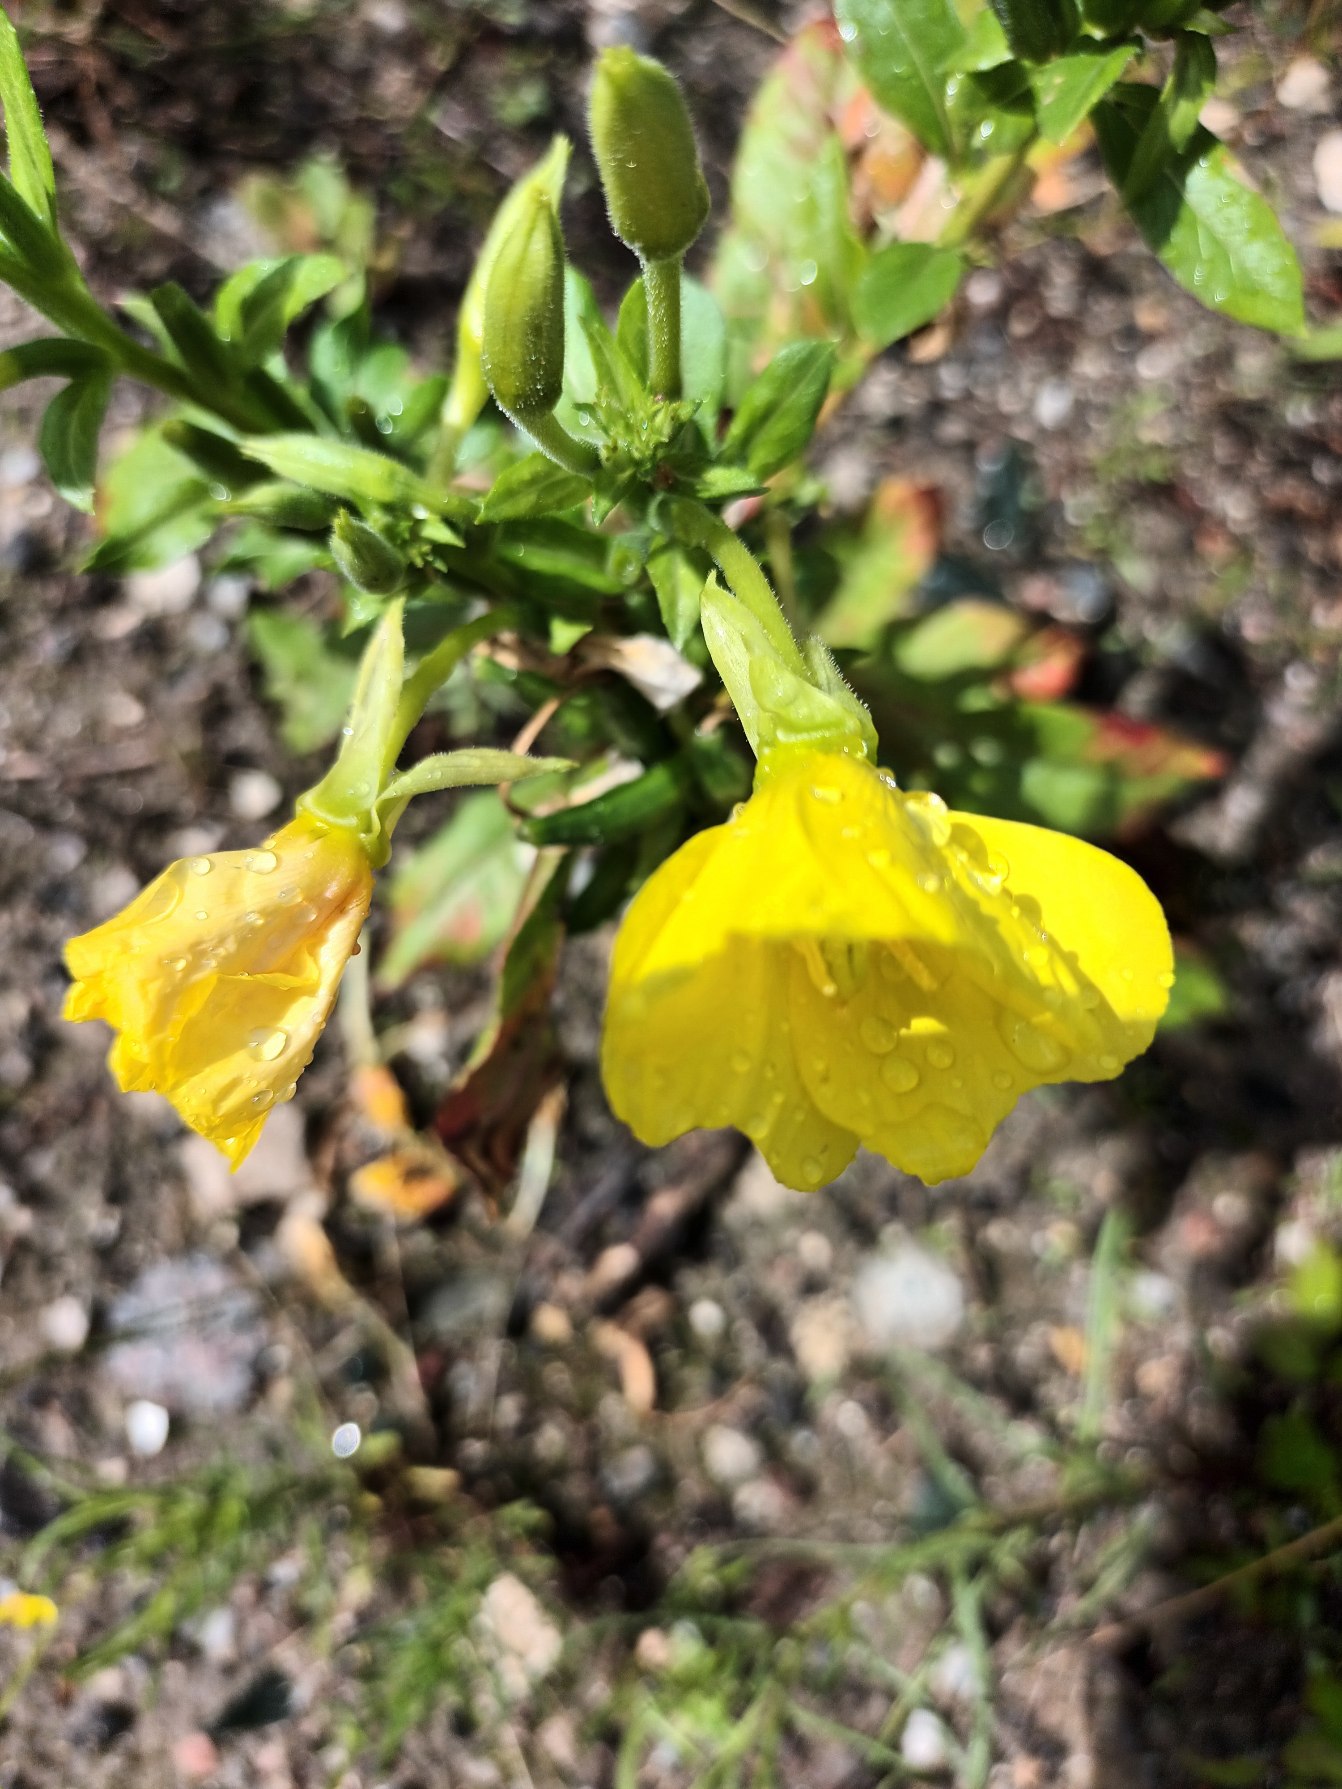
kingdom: Plantae
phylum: Tracheophyta
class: Magnoliopsida
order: Myrtales
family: Onagraceae
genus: Oenothera
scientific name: Oenothera biennis
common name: Toårig natlys
